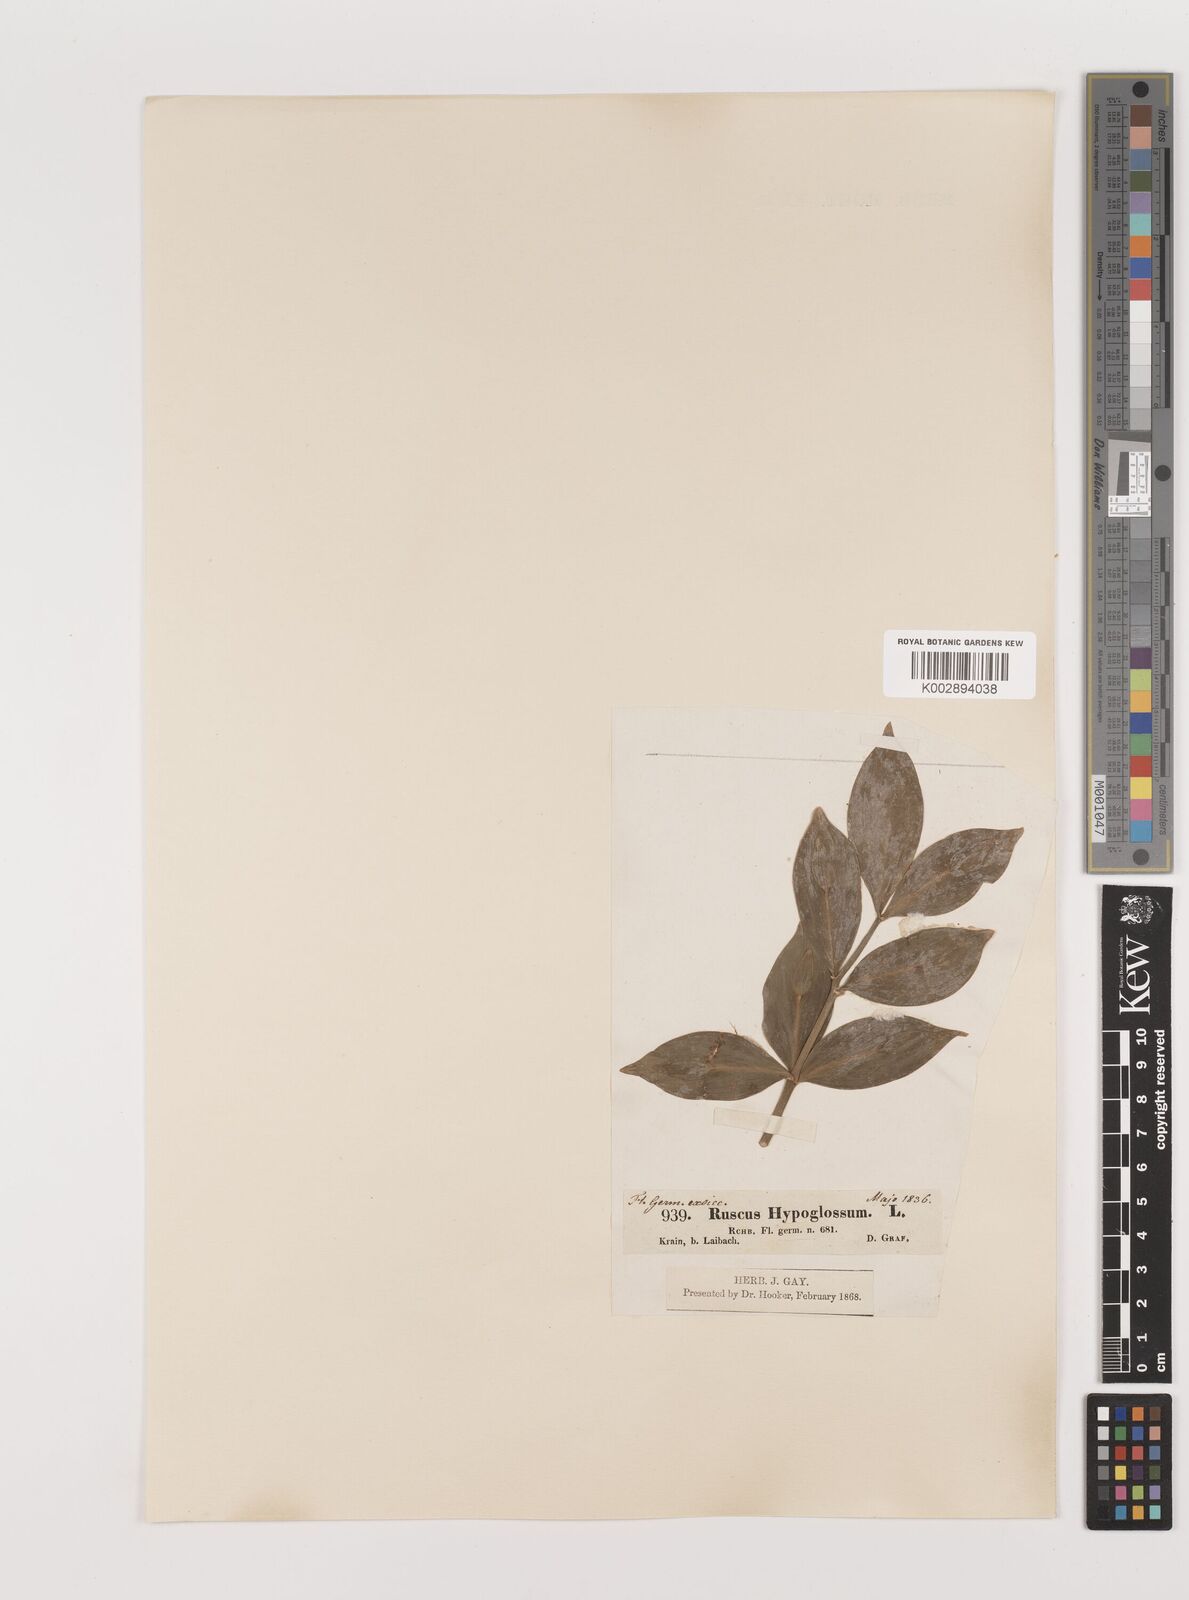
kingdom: Plantae
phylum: Tracheophyta
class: Liliopsida
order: Asparagales
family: Asparagaceae
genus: Ruscus
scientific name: Ruscus hypoglossum
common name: Spineless butcher's-broom
